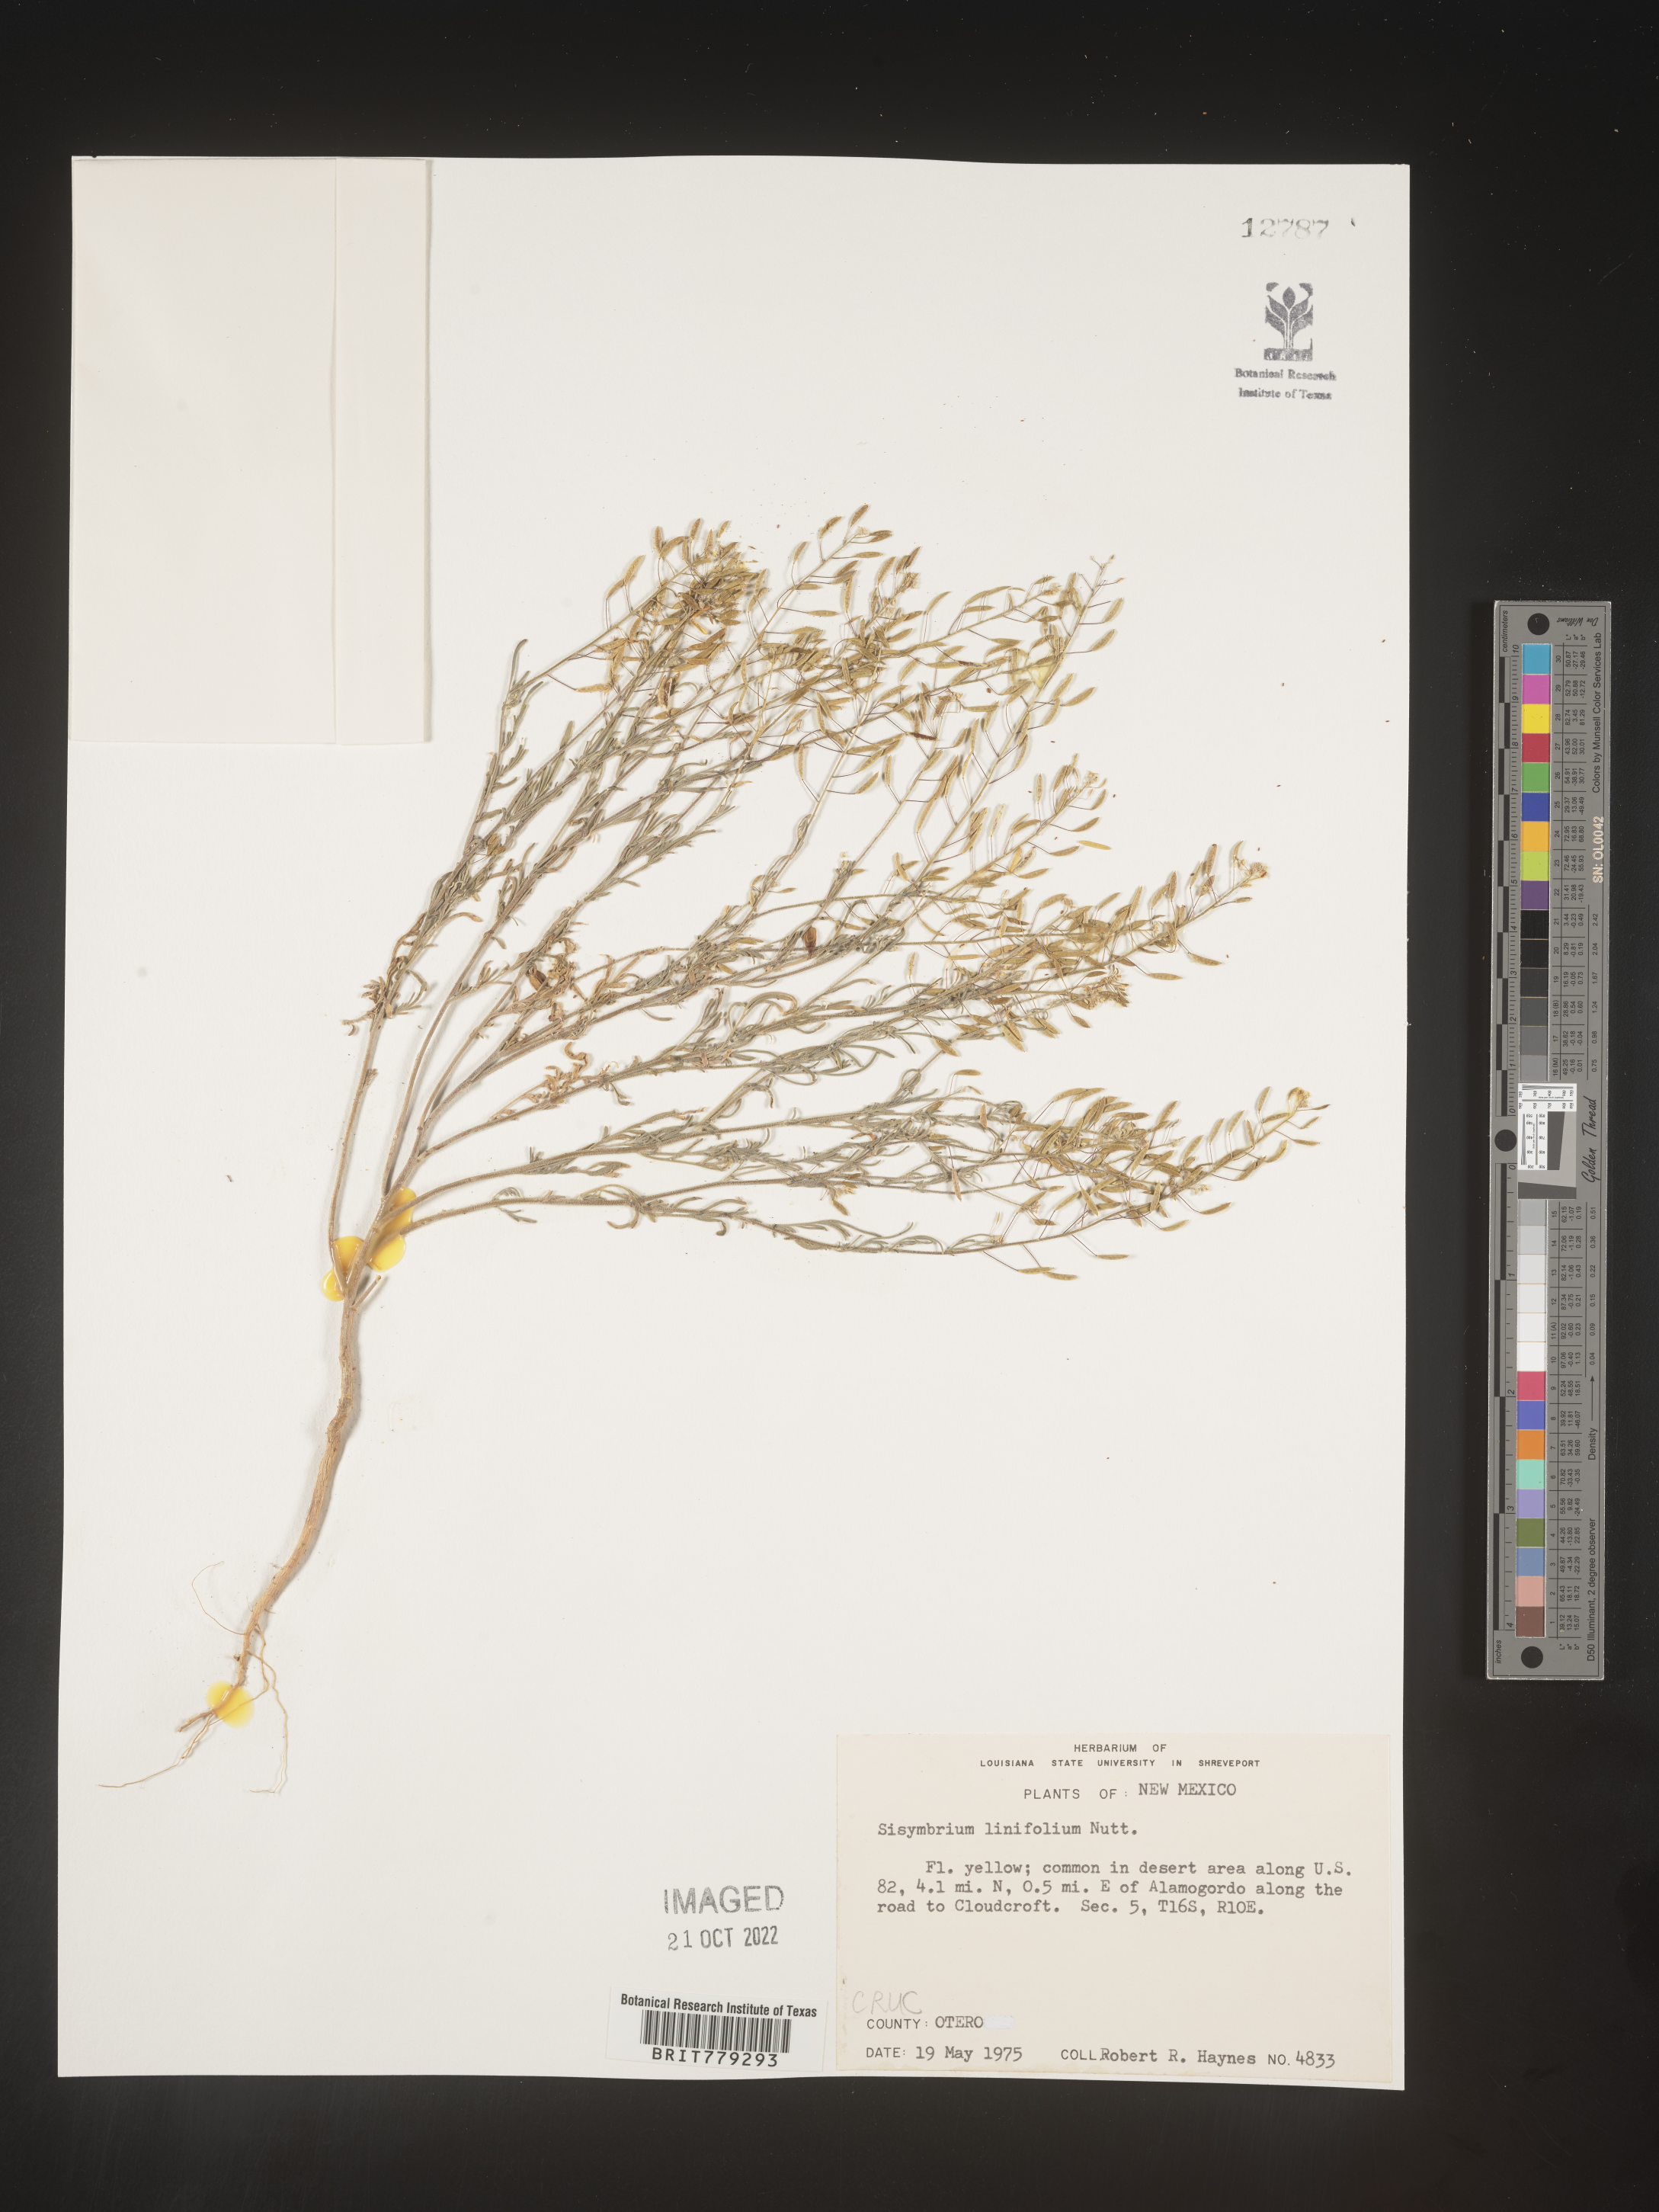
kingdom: Plantae
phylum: Tracheophyta
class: Magnoliopsida
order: Brassicales
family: Brassicaceae
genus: Sisymbrium
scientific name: Sisymbrium
